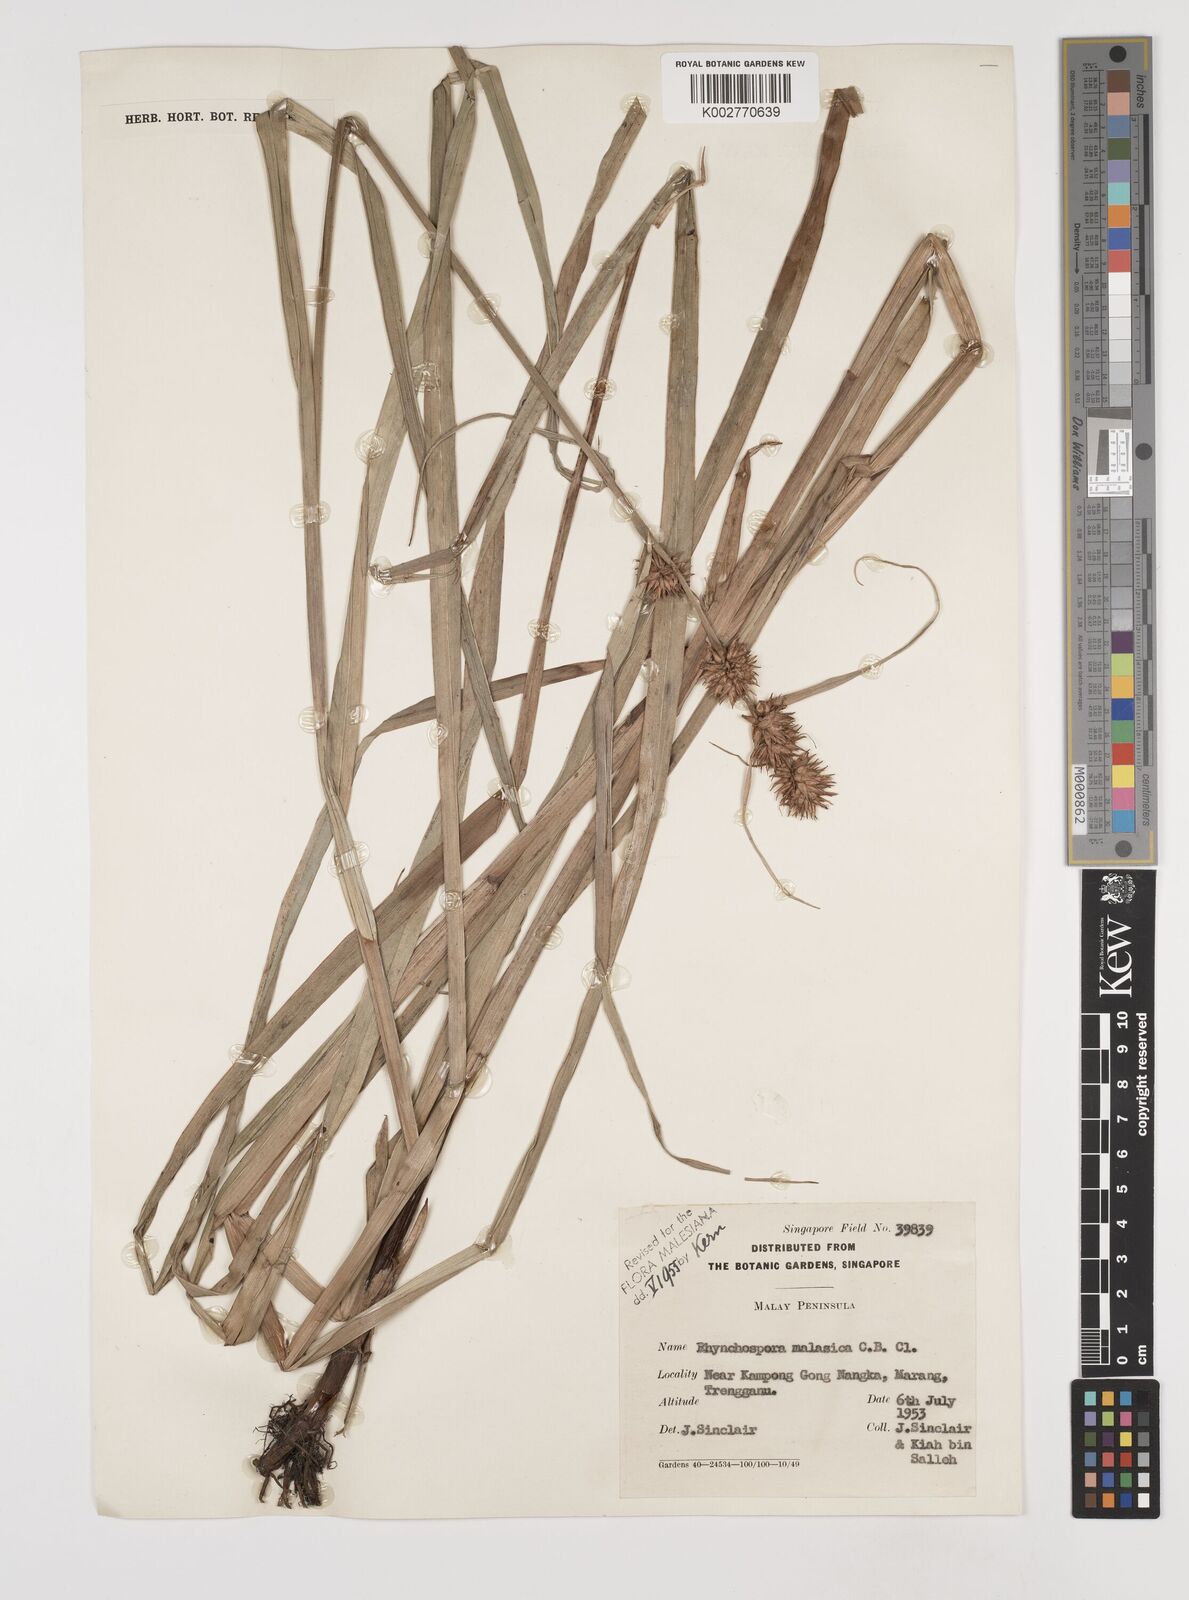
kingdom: Plantae
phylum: Tracheophyta
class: Liliopsida
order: Poales
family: Cyperaceae
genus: Rhynchospora
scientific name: Rhynchospora malasica
